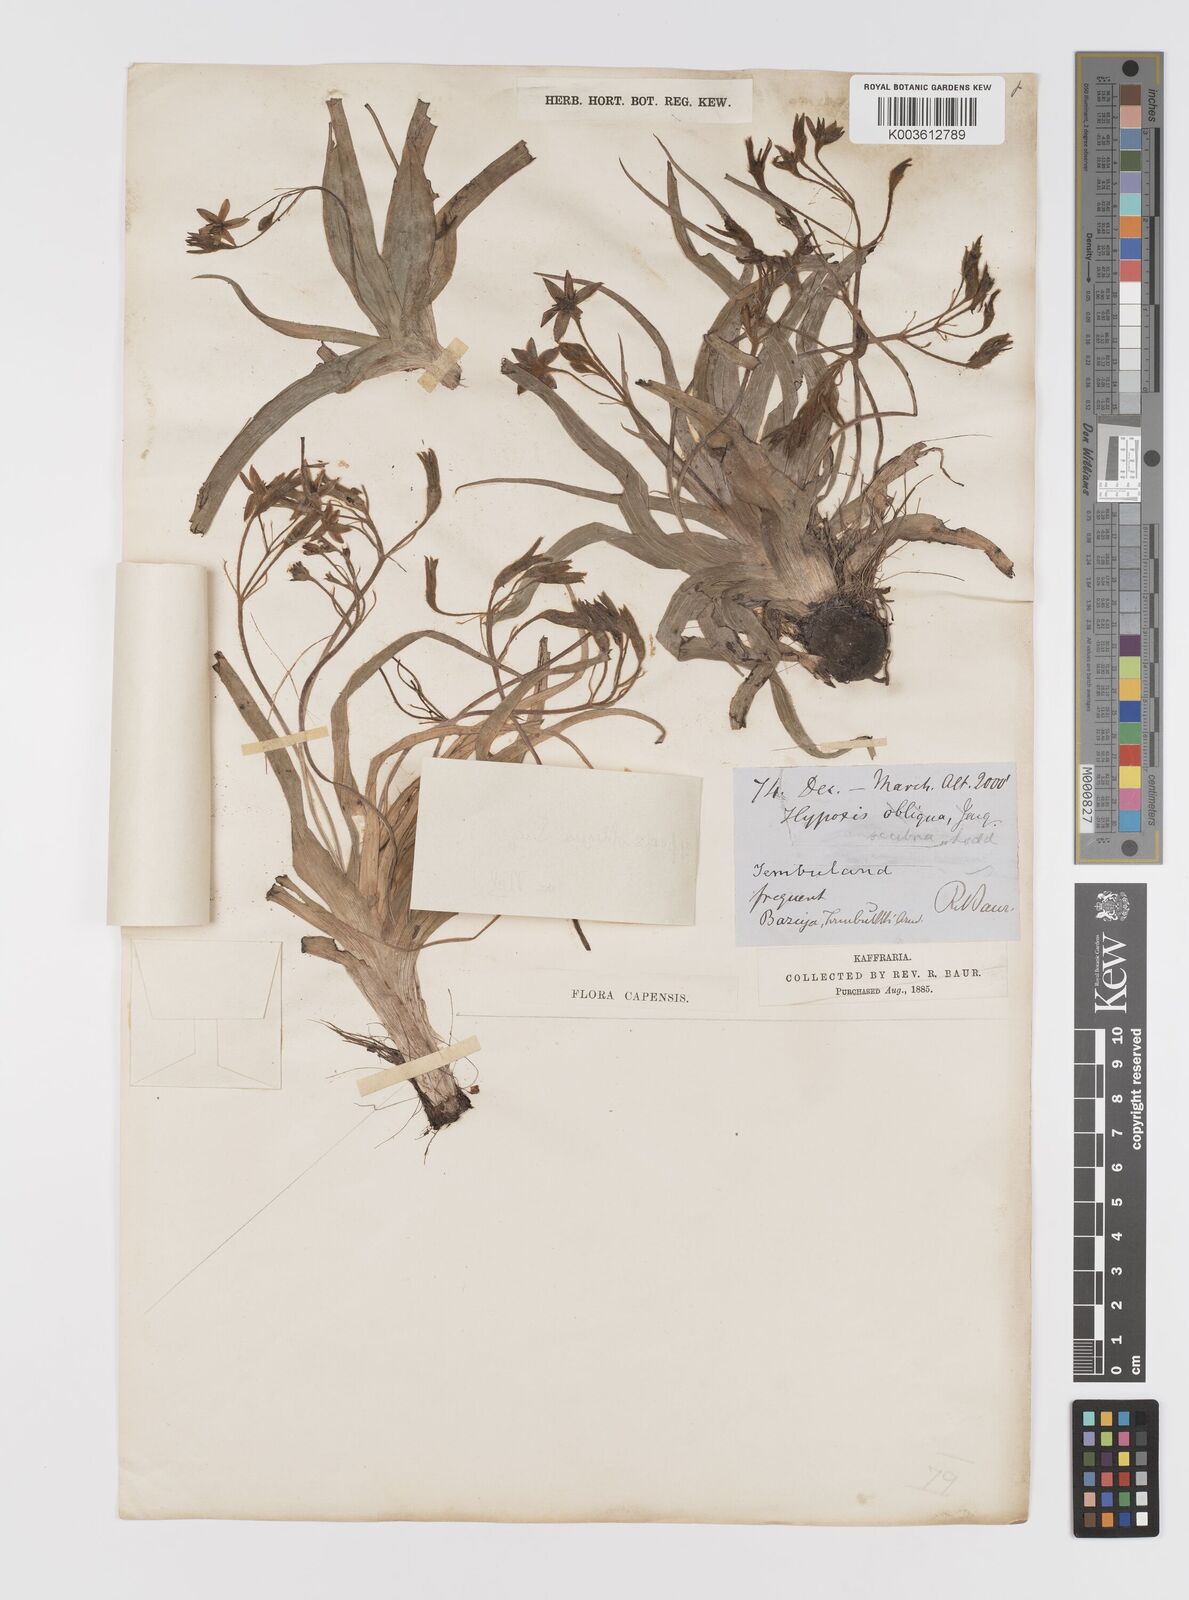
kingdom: Plantae
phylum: Tracheophyta
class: Liliopsida
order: Asparagales
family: Hypoxidaceae
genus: Hypoxis
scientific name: Hypoxis villosa
